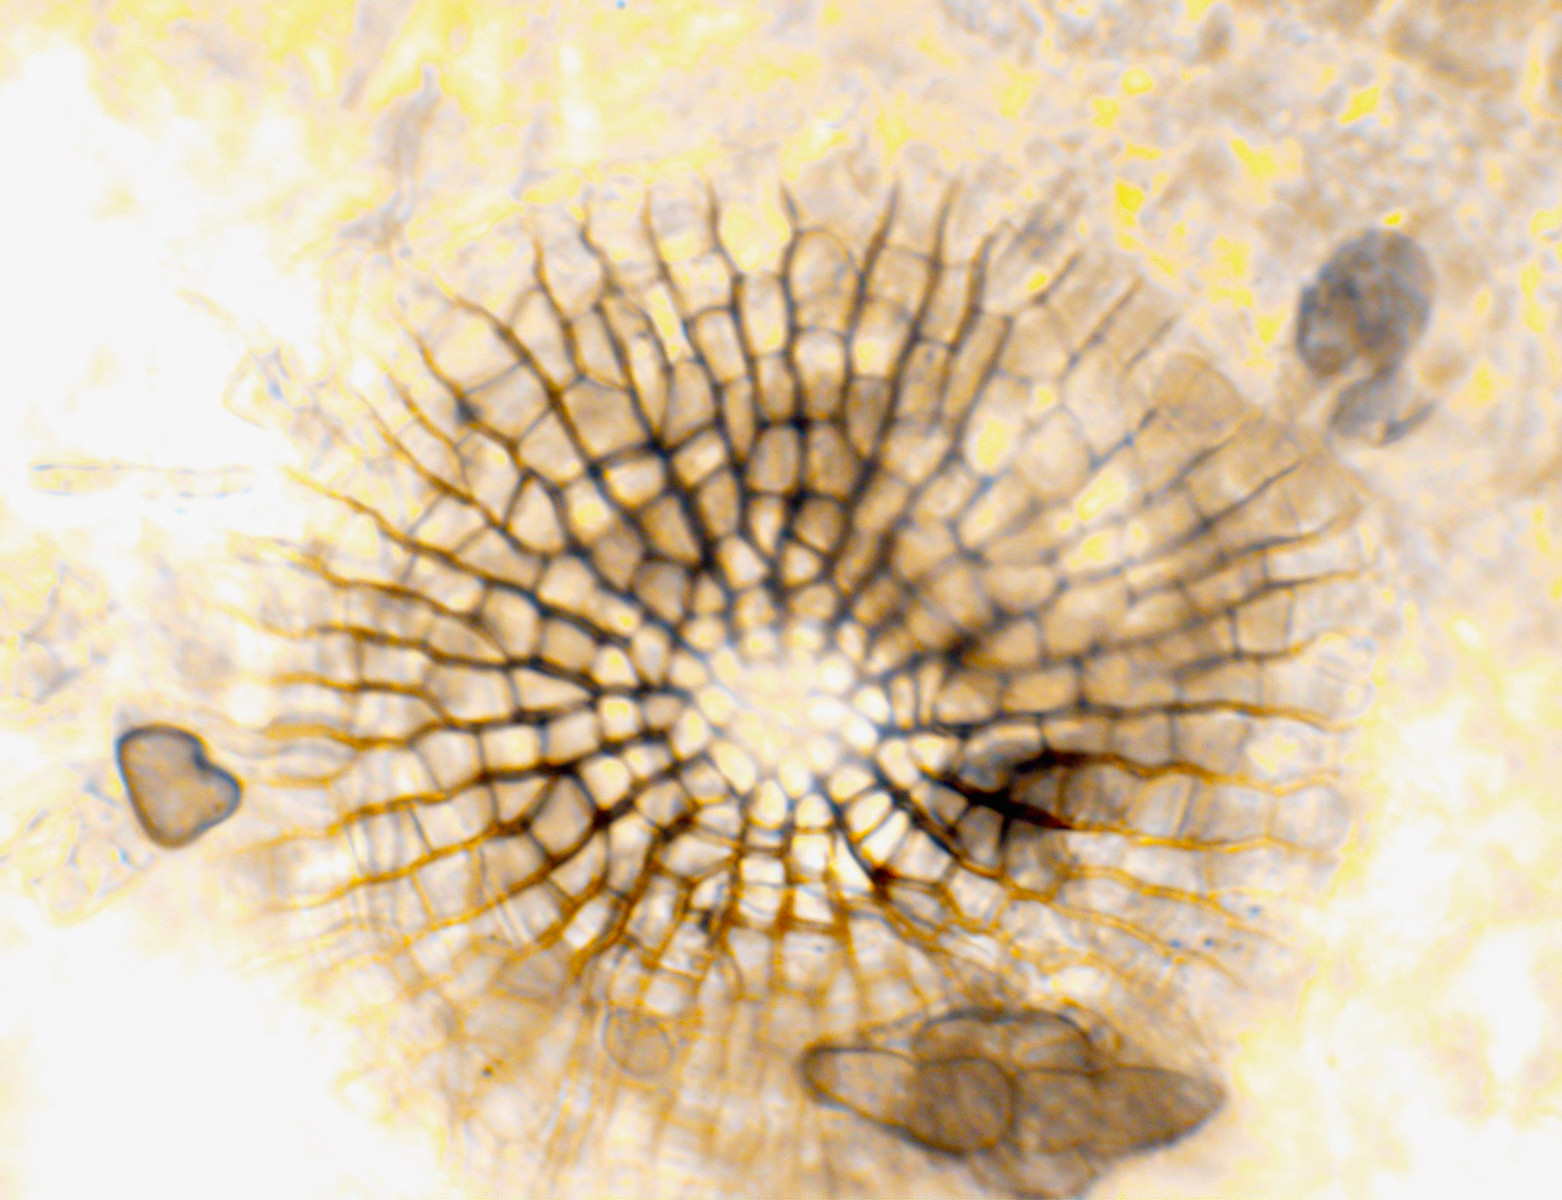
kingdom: Fungi
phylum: Ascomycota
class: Dothideomycetes
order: Microthyriales
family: Microthyriaceae
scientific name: Microthyriaceae
